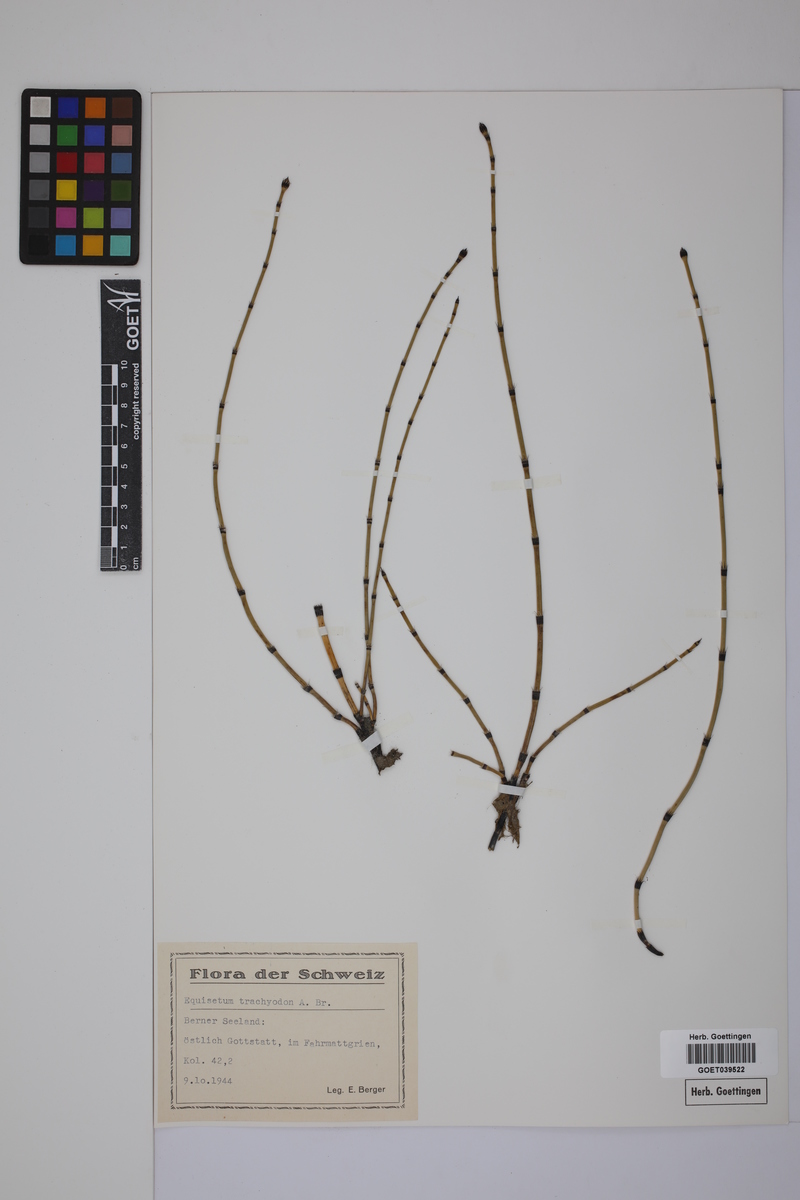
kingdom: Plantae
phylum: Tracheophyta
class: Polypodiopsida
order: Equisetales
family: Equisetaceae
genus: Equisetum
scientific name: Equisetum trachyodon
